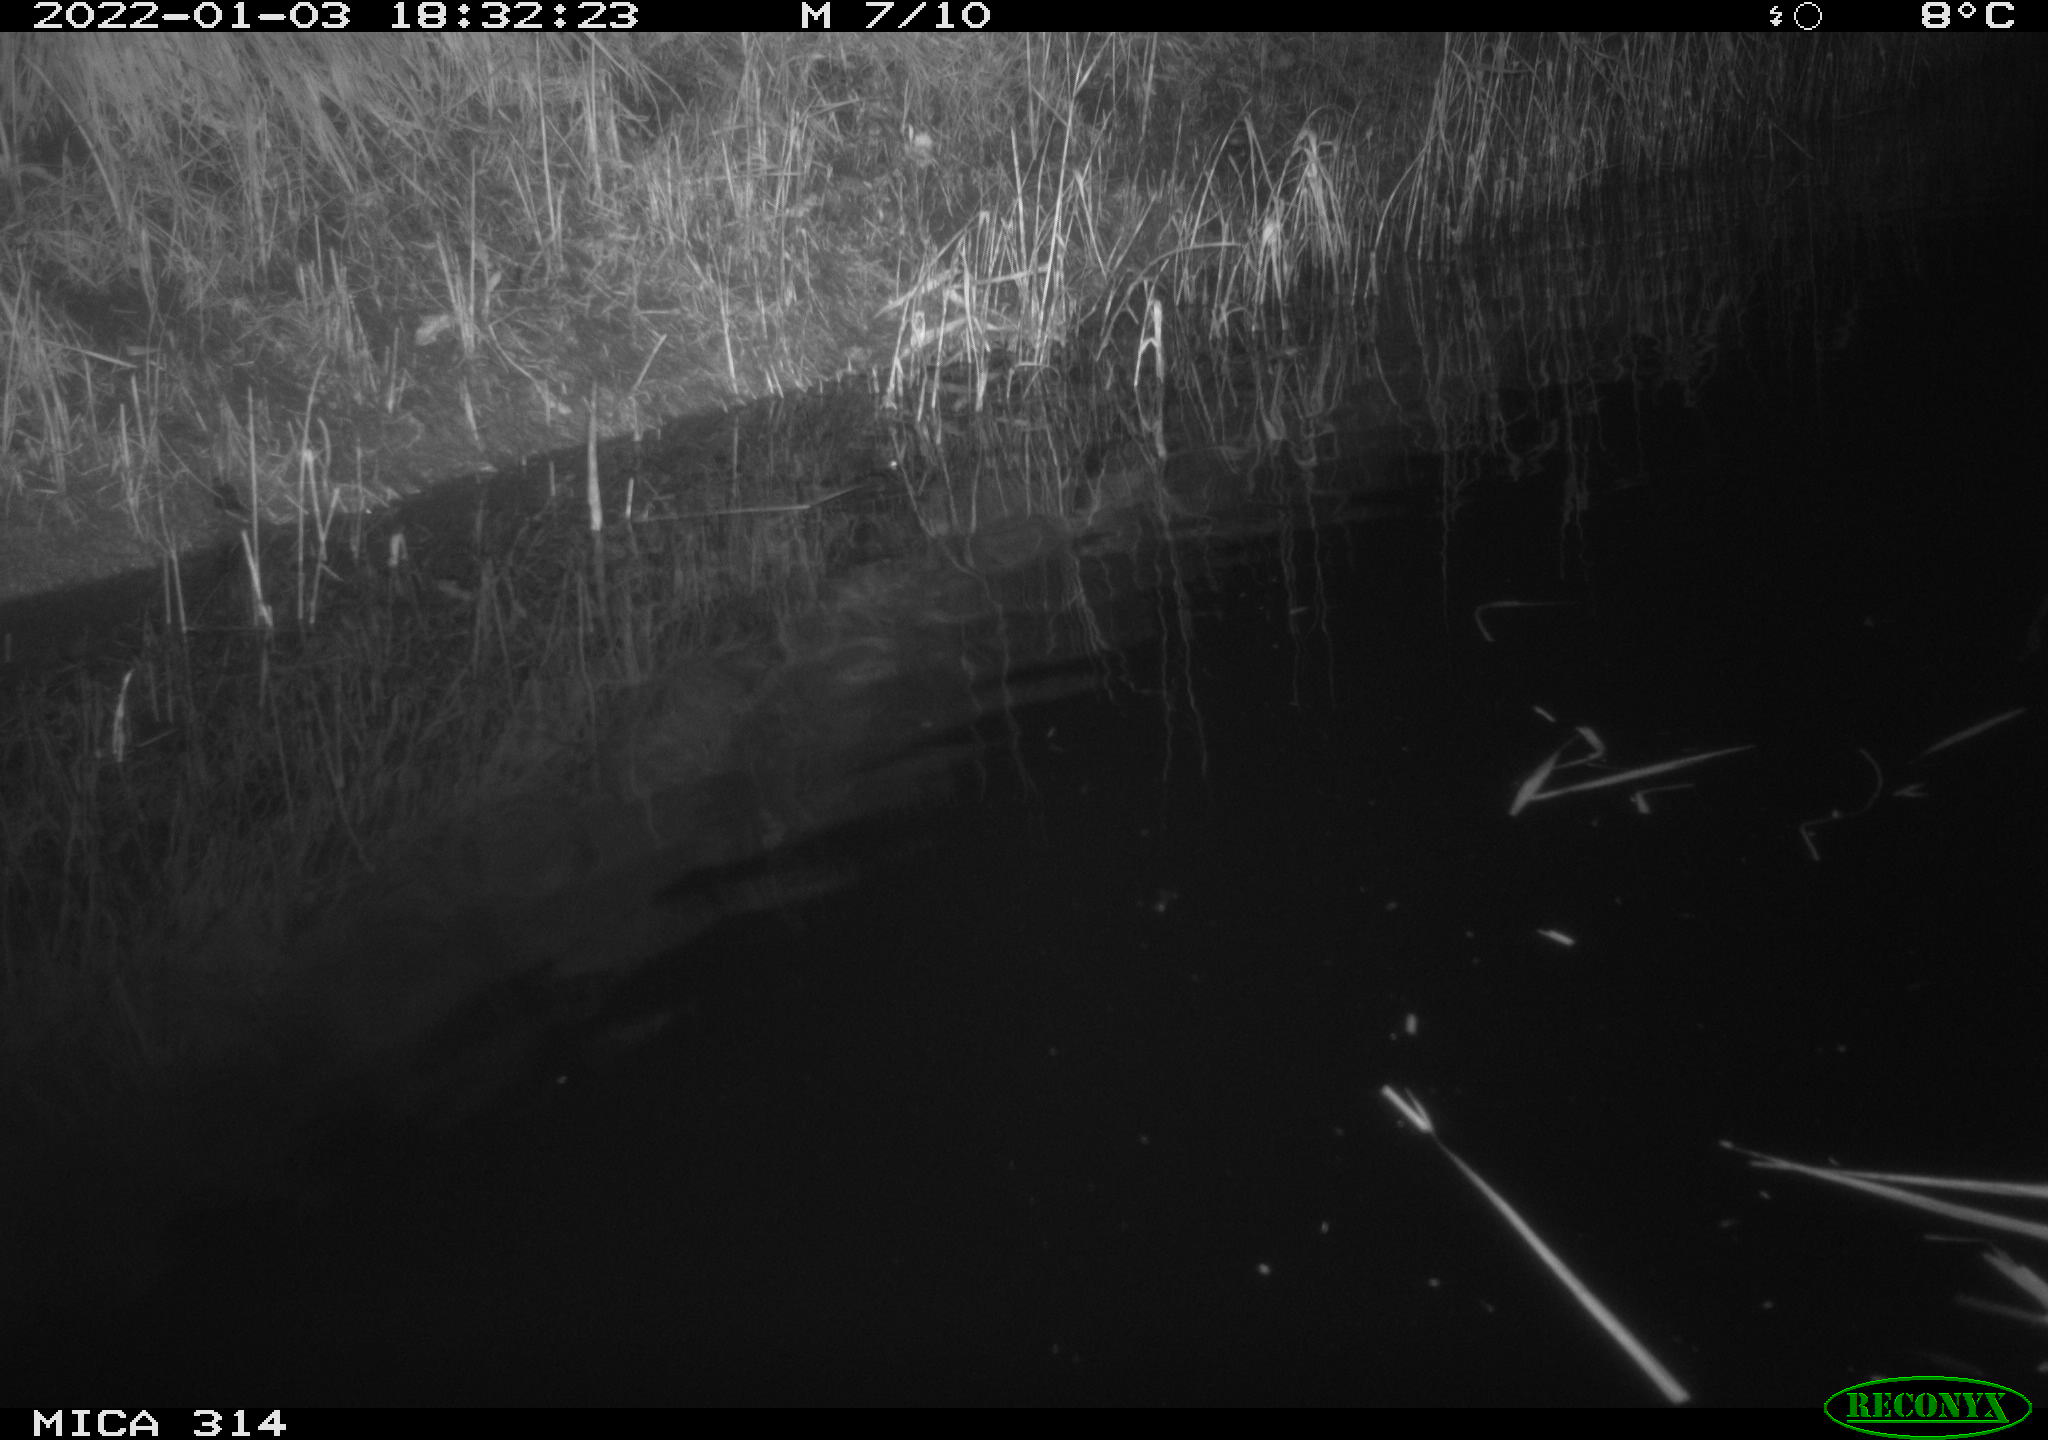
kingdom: Animalia
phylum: Chordata
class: Mammalia
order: Rodentia
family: Muridae
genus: Rattus
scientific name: Rattus norvegicus
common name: Brown rat
